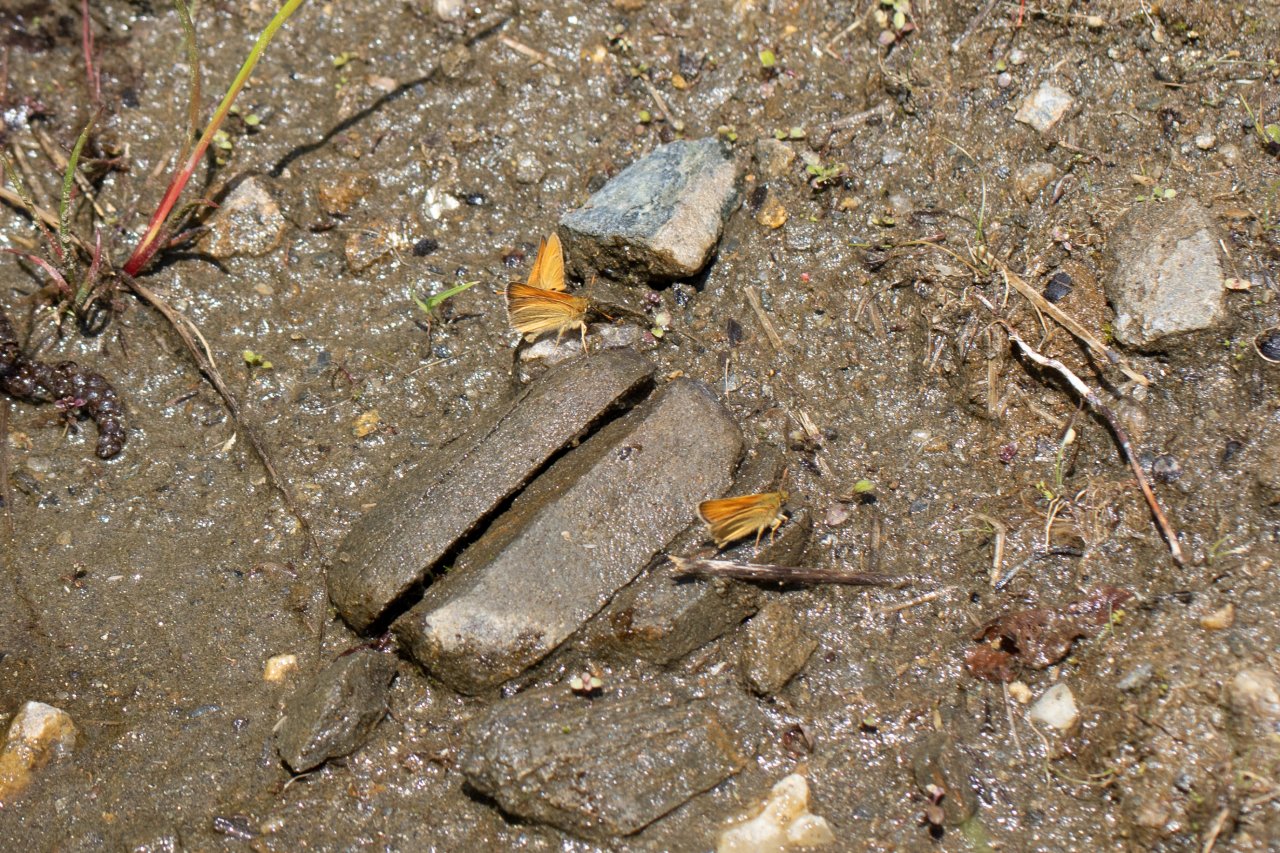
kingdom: Animalia
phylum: Arthropoda
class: Insecta
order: Lepidoptera
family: Hesperiidae
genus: Thymelicus
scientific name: Thymelicus lineola
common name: European Skipper
